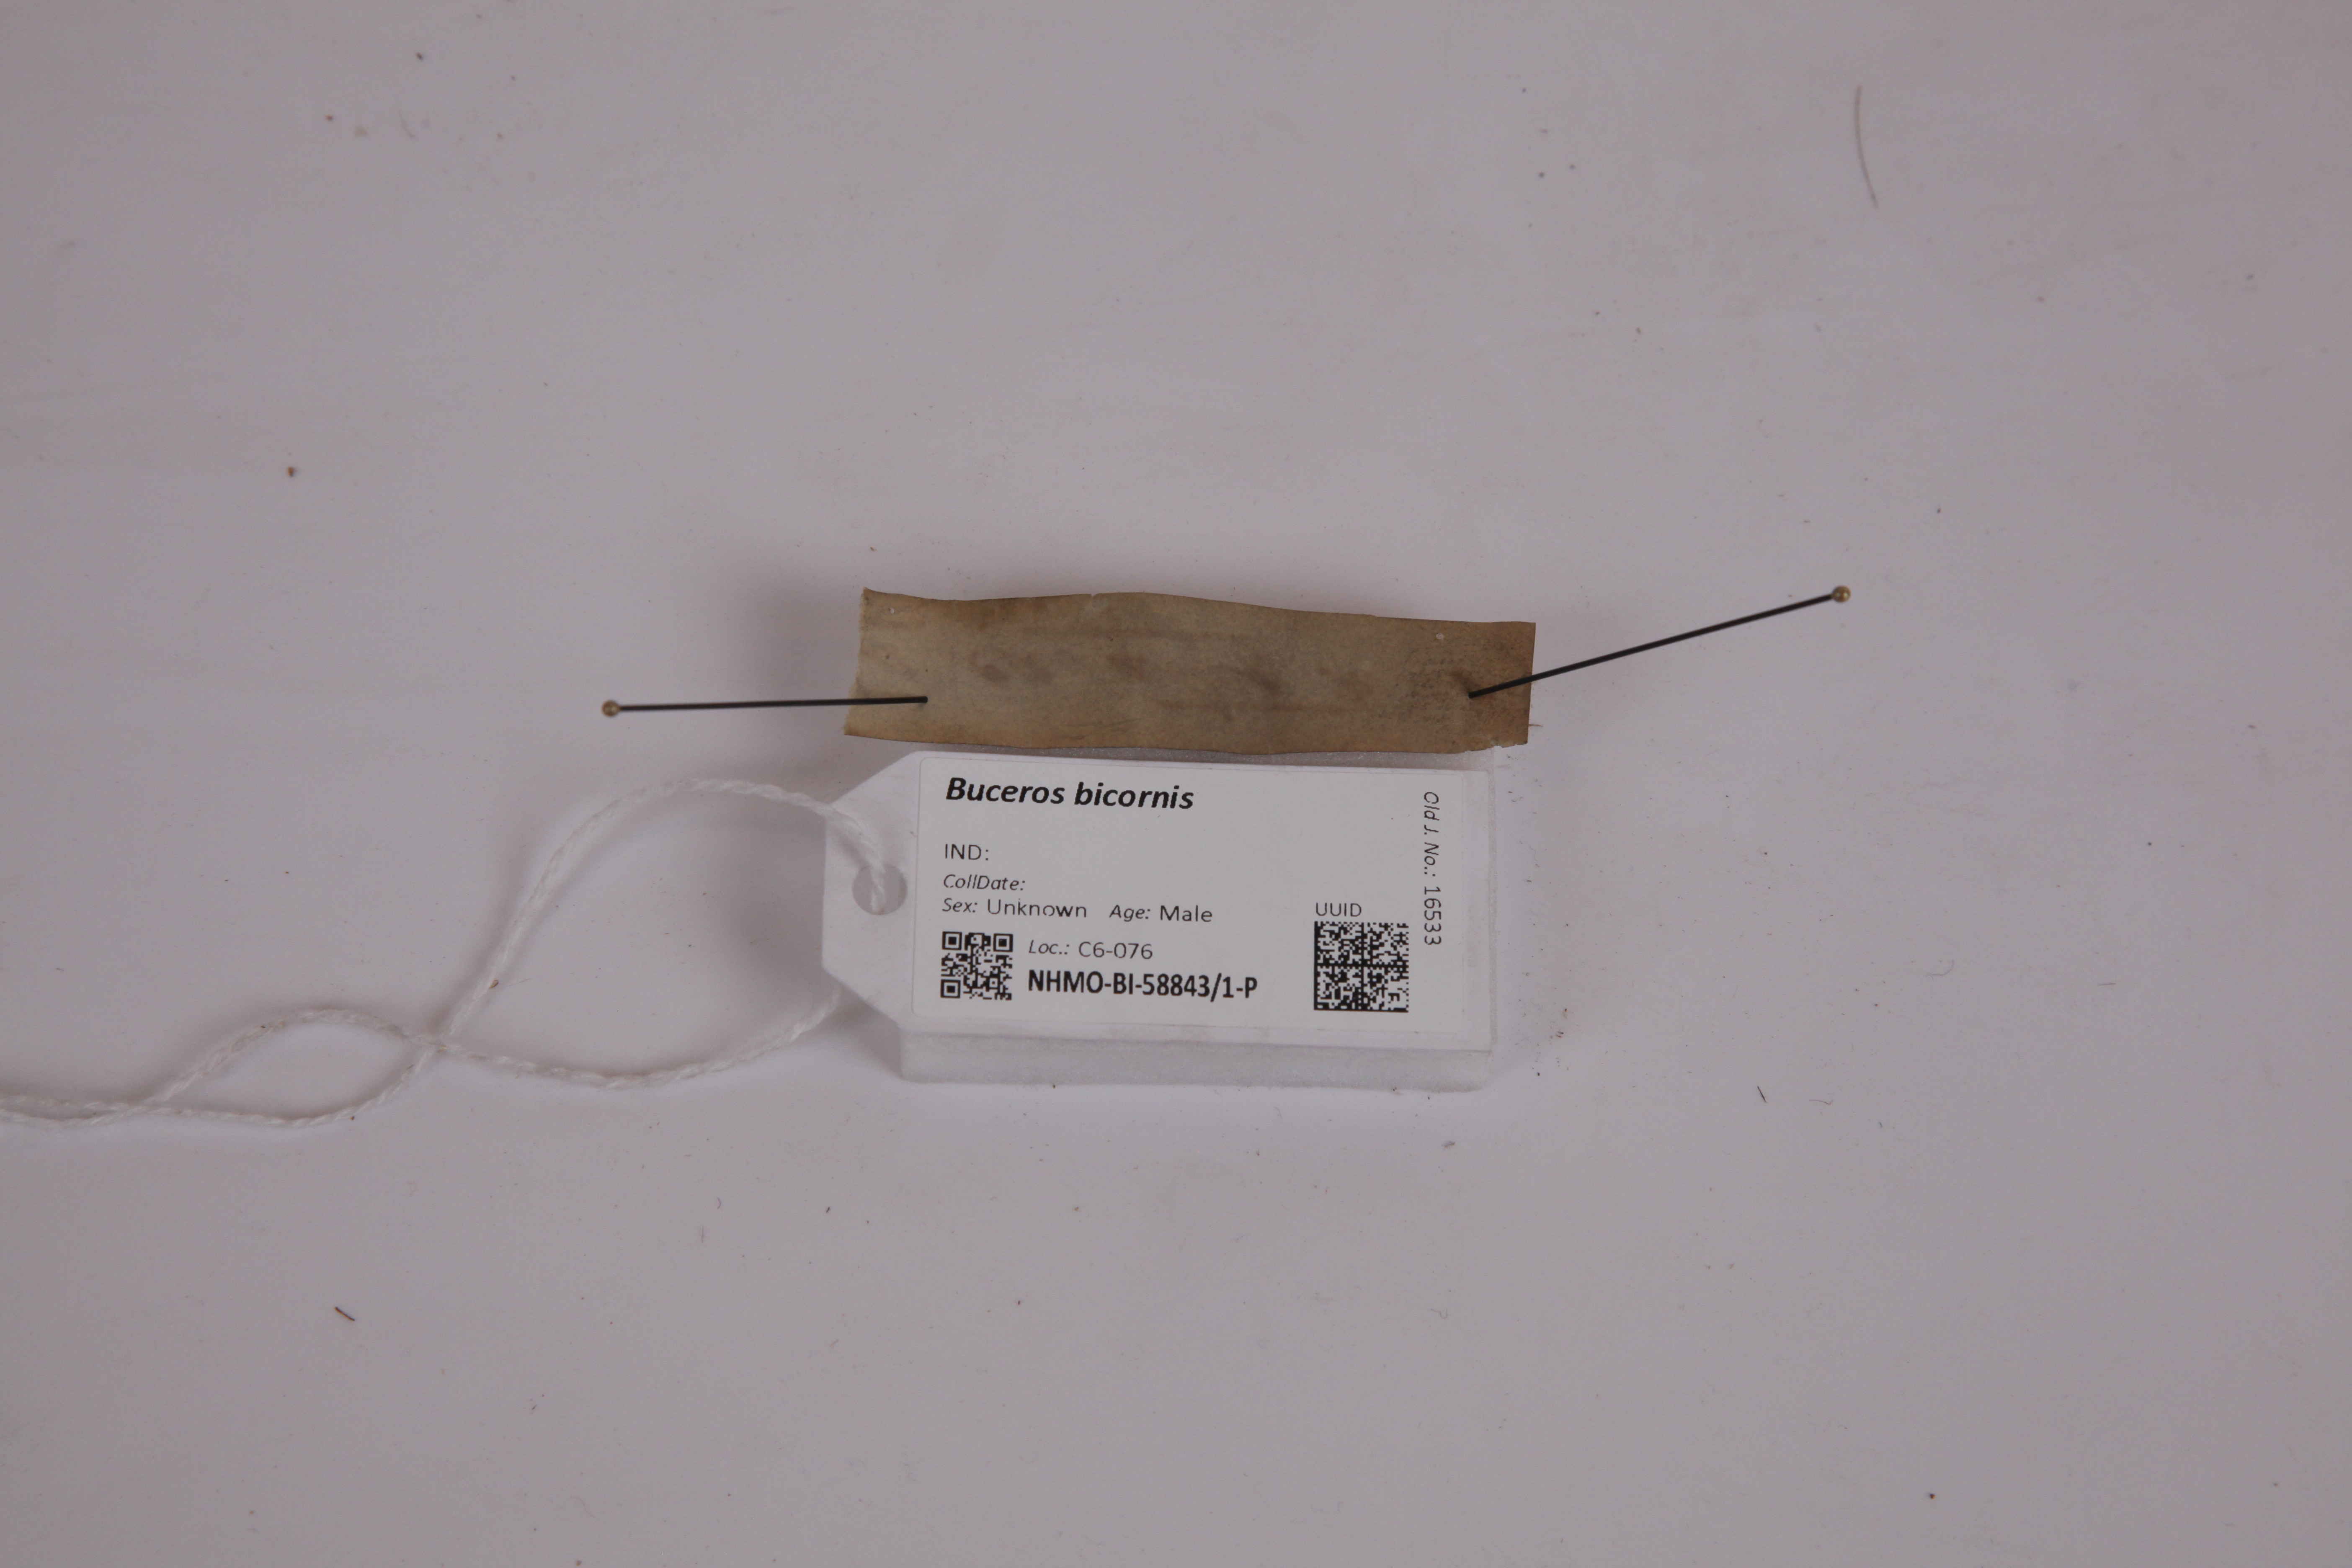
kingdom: Animalia
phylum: Chordata
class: Aves
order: Bucerotiformes
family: Bucerotidae
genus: Buceros
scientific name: Buceros bicornis
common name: Great hornbill
